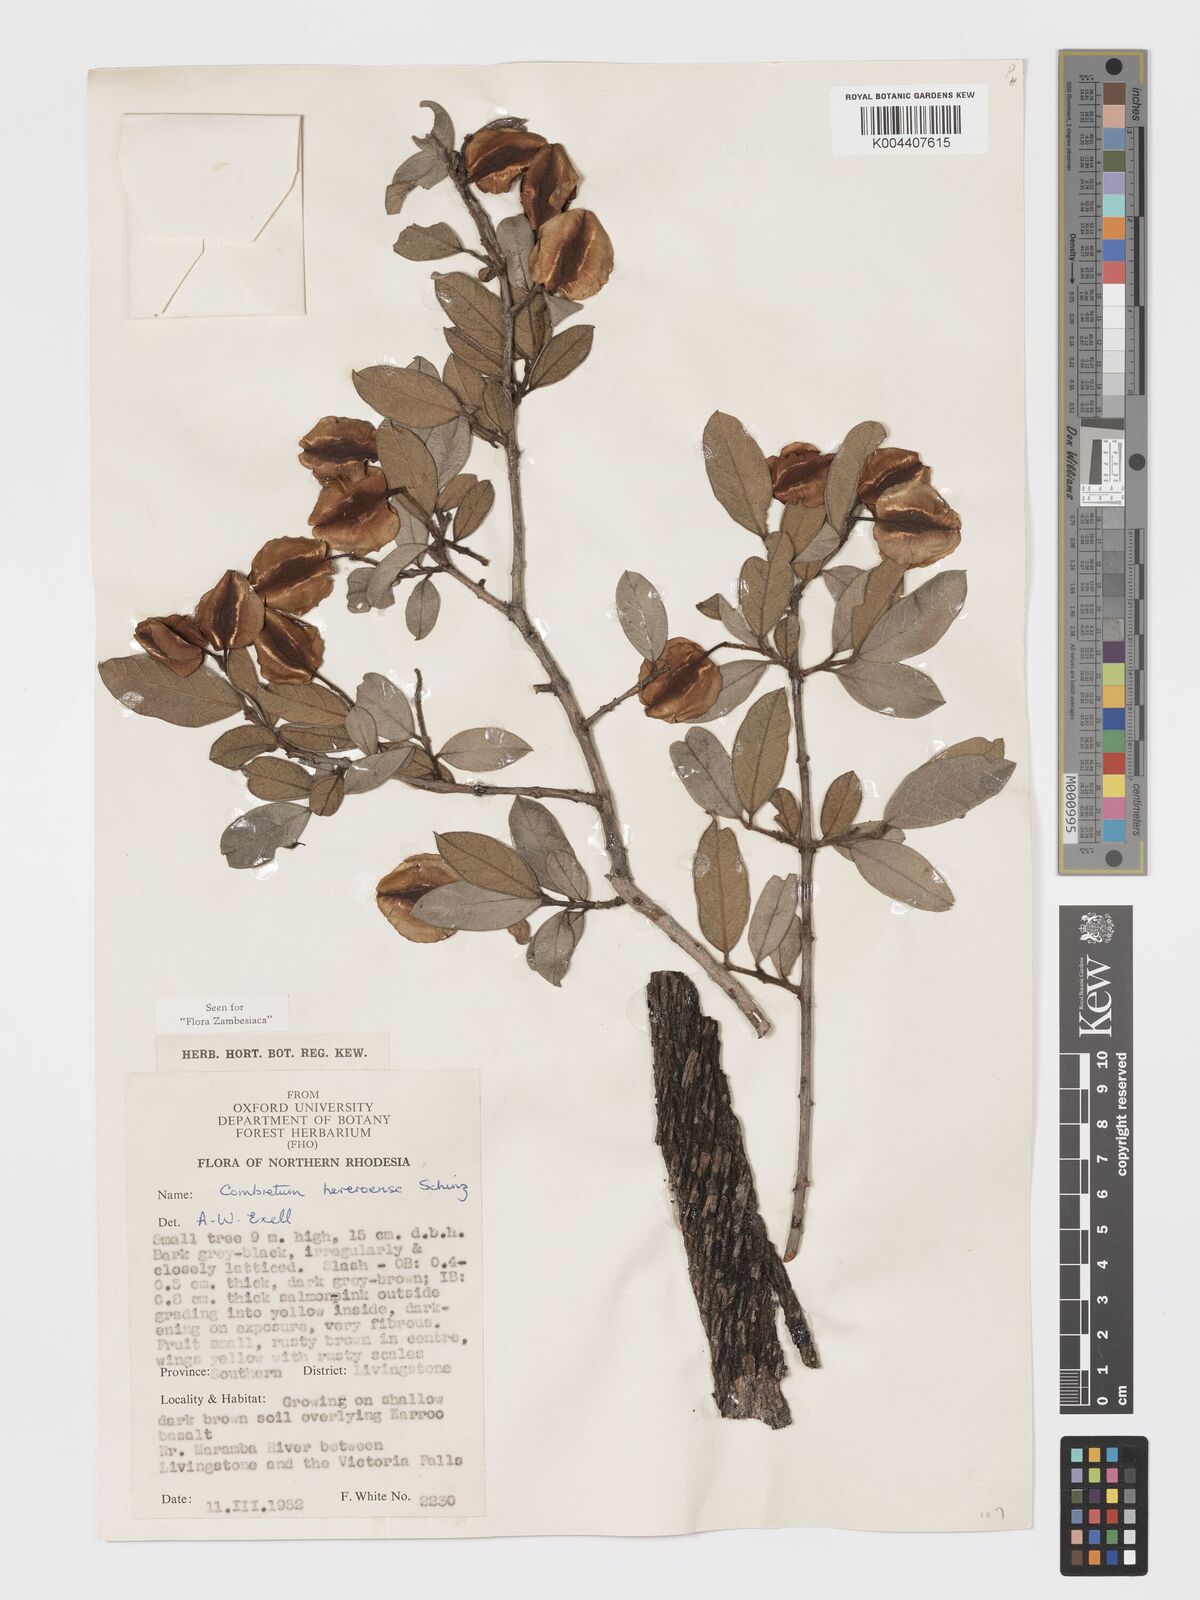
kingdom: Plantae
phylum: Tracheophyta
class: Magnoliopsida
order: Myrtales
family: Combretaceae
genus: Combretum
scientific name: Combretum hereroense
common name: Russet bushwillow
